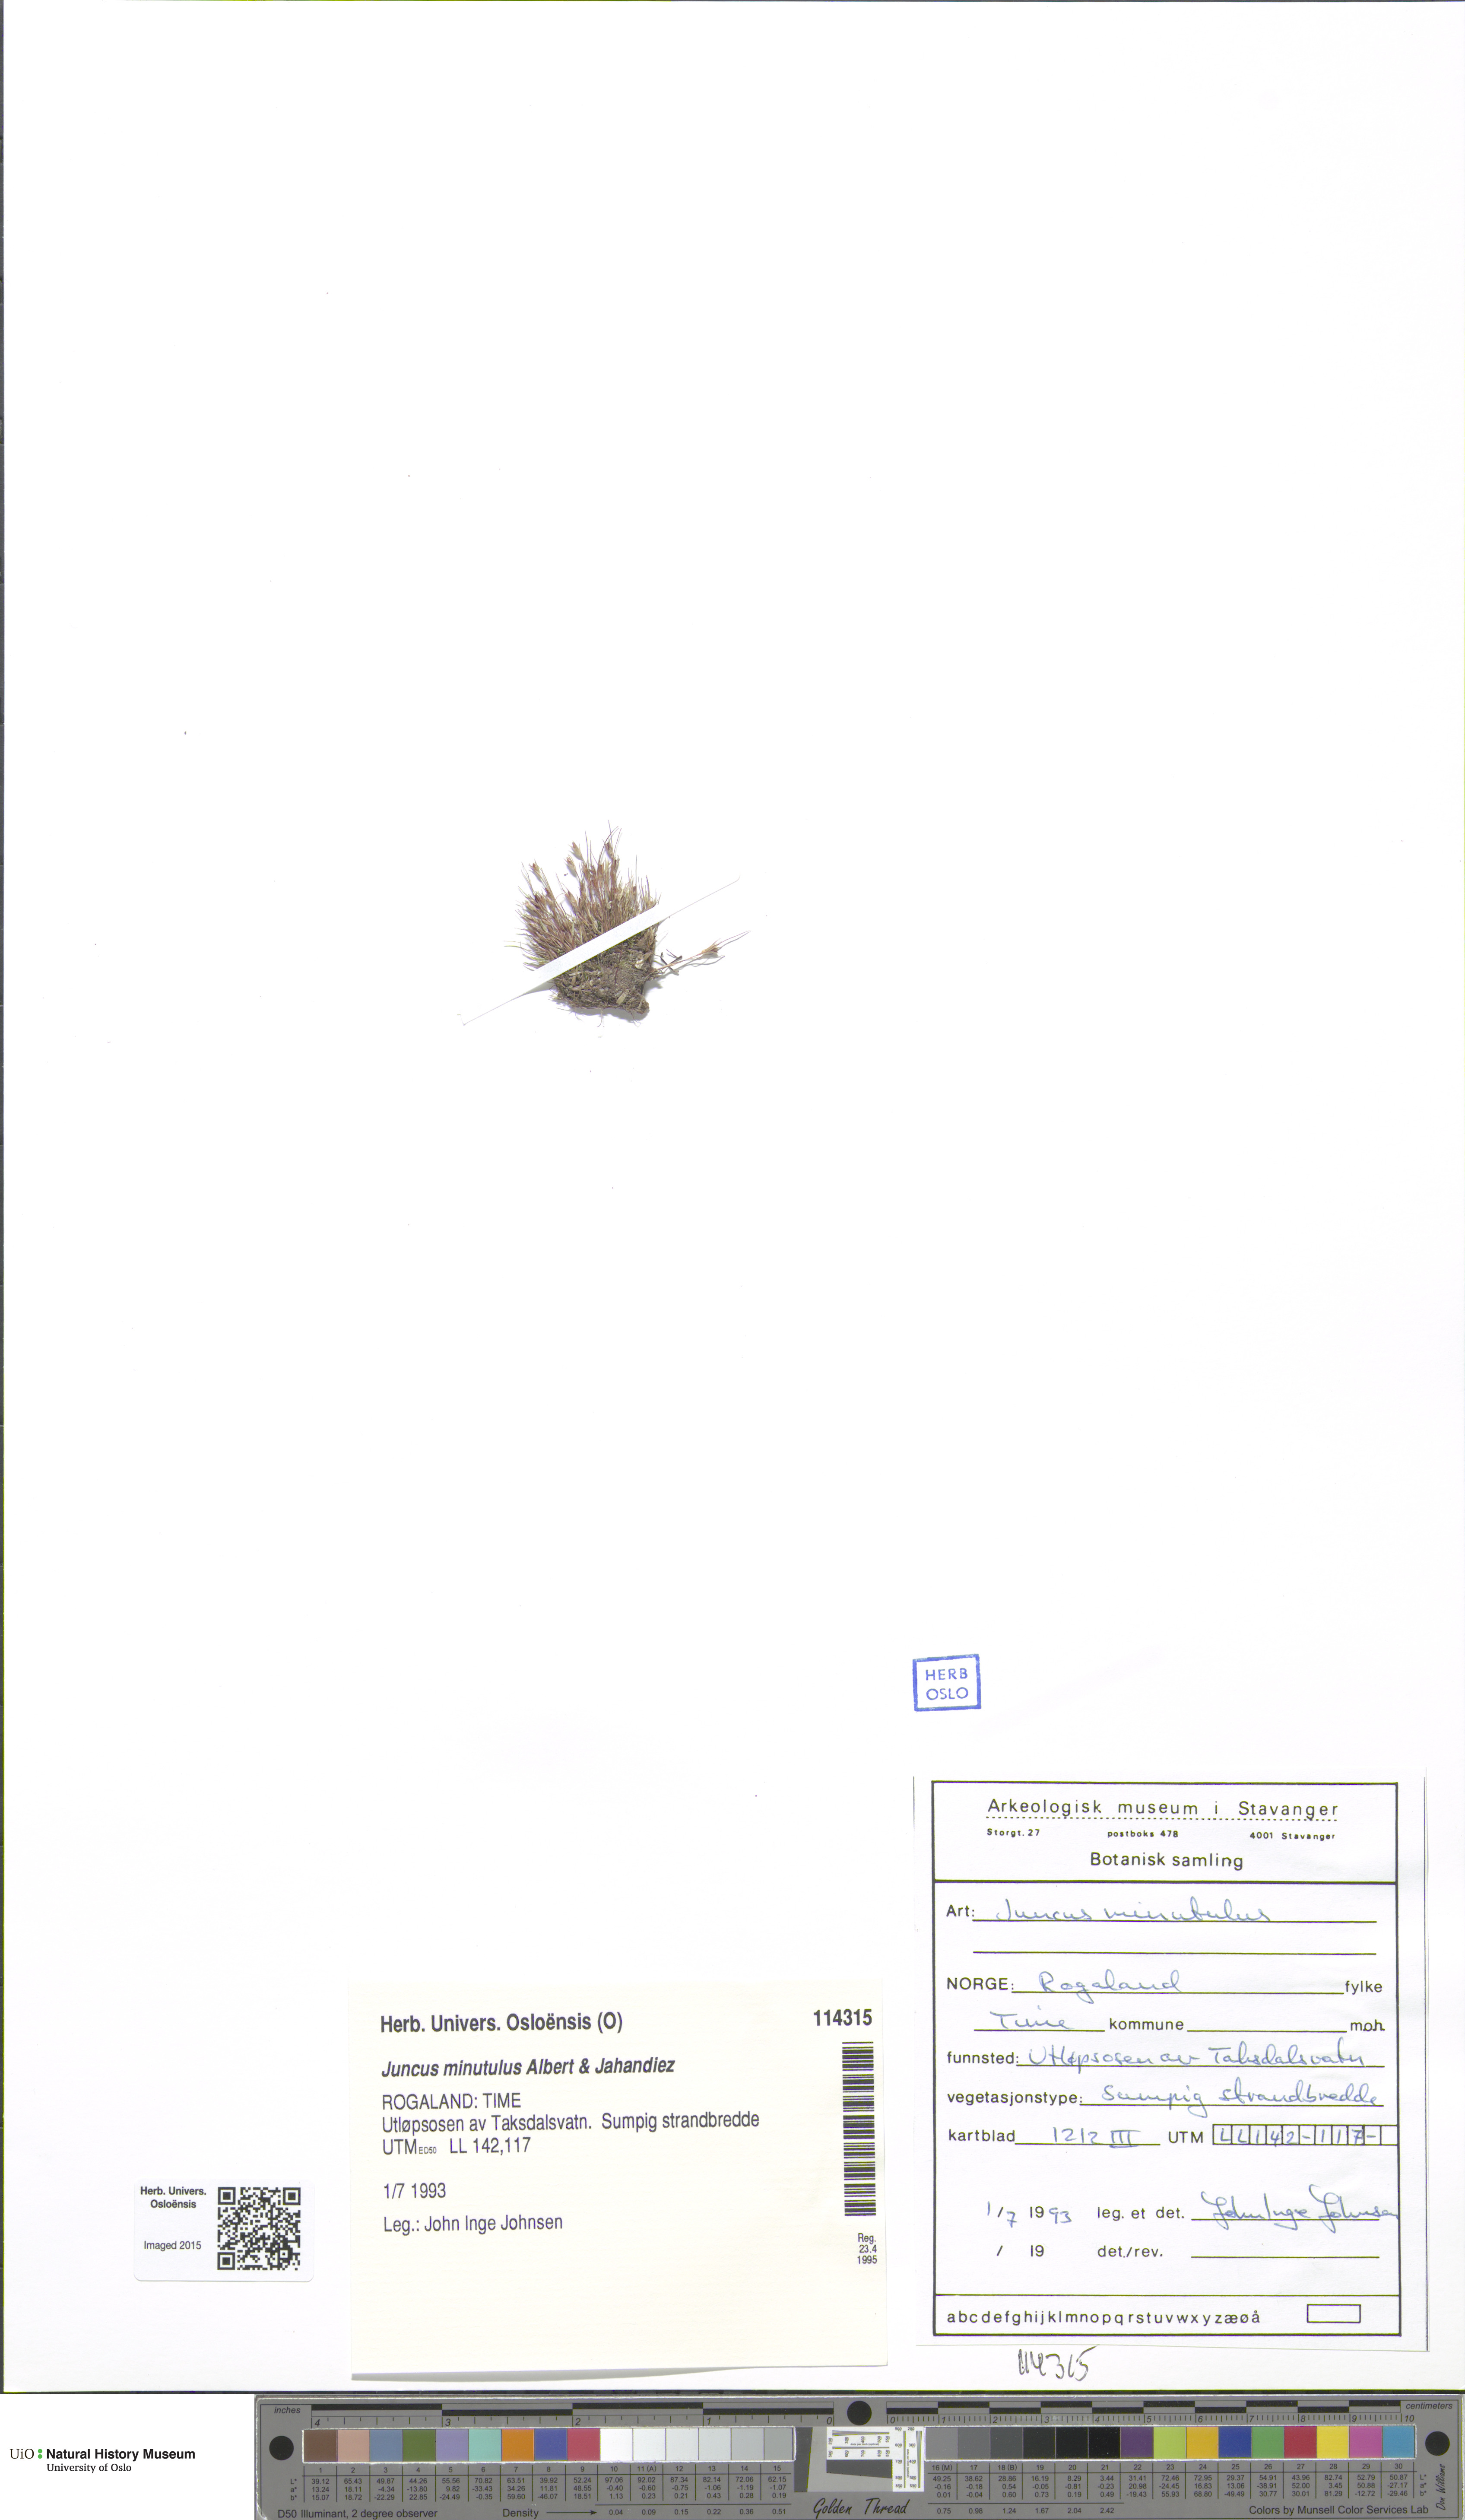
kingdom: Plantae
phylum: Tracheophyta
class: Liliopsida
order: Poales
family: Juncaceae
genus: Juncus
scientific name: Juncus minutulus
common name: Minute rush
